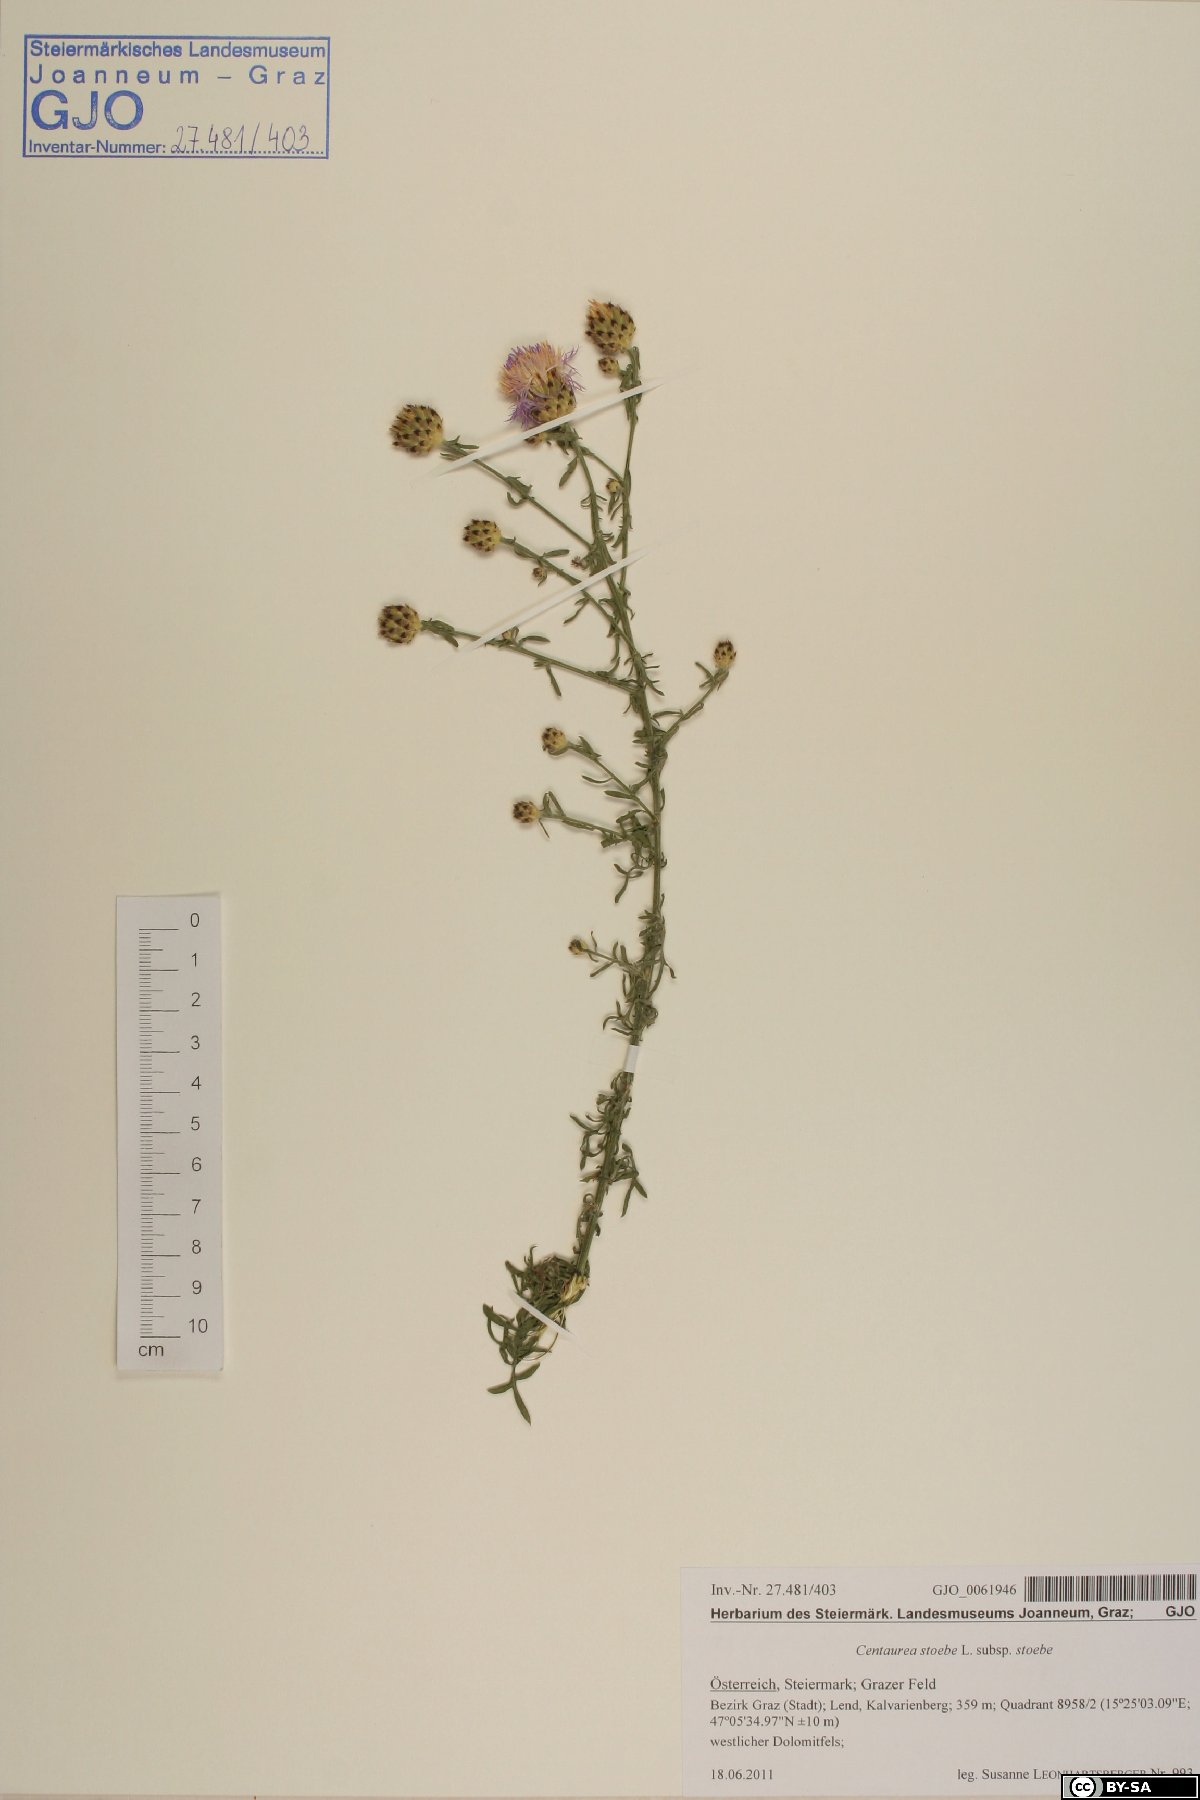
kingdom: Plantae
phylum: Tracheophyta
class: Magnoliopsida
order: Asterales
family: Asteraceae
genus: Centaurea
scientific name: Centaurea stoebe
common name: Spotted knapweed
